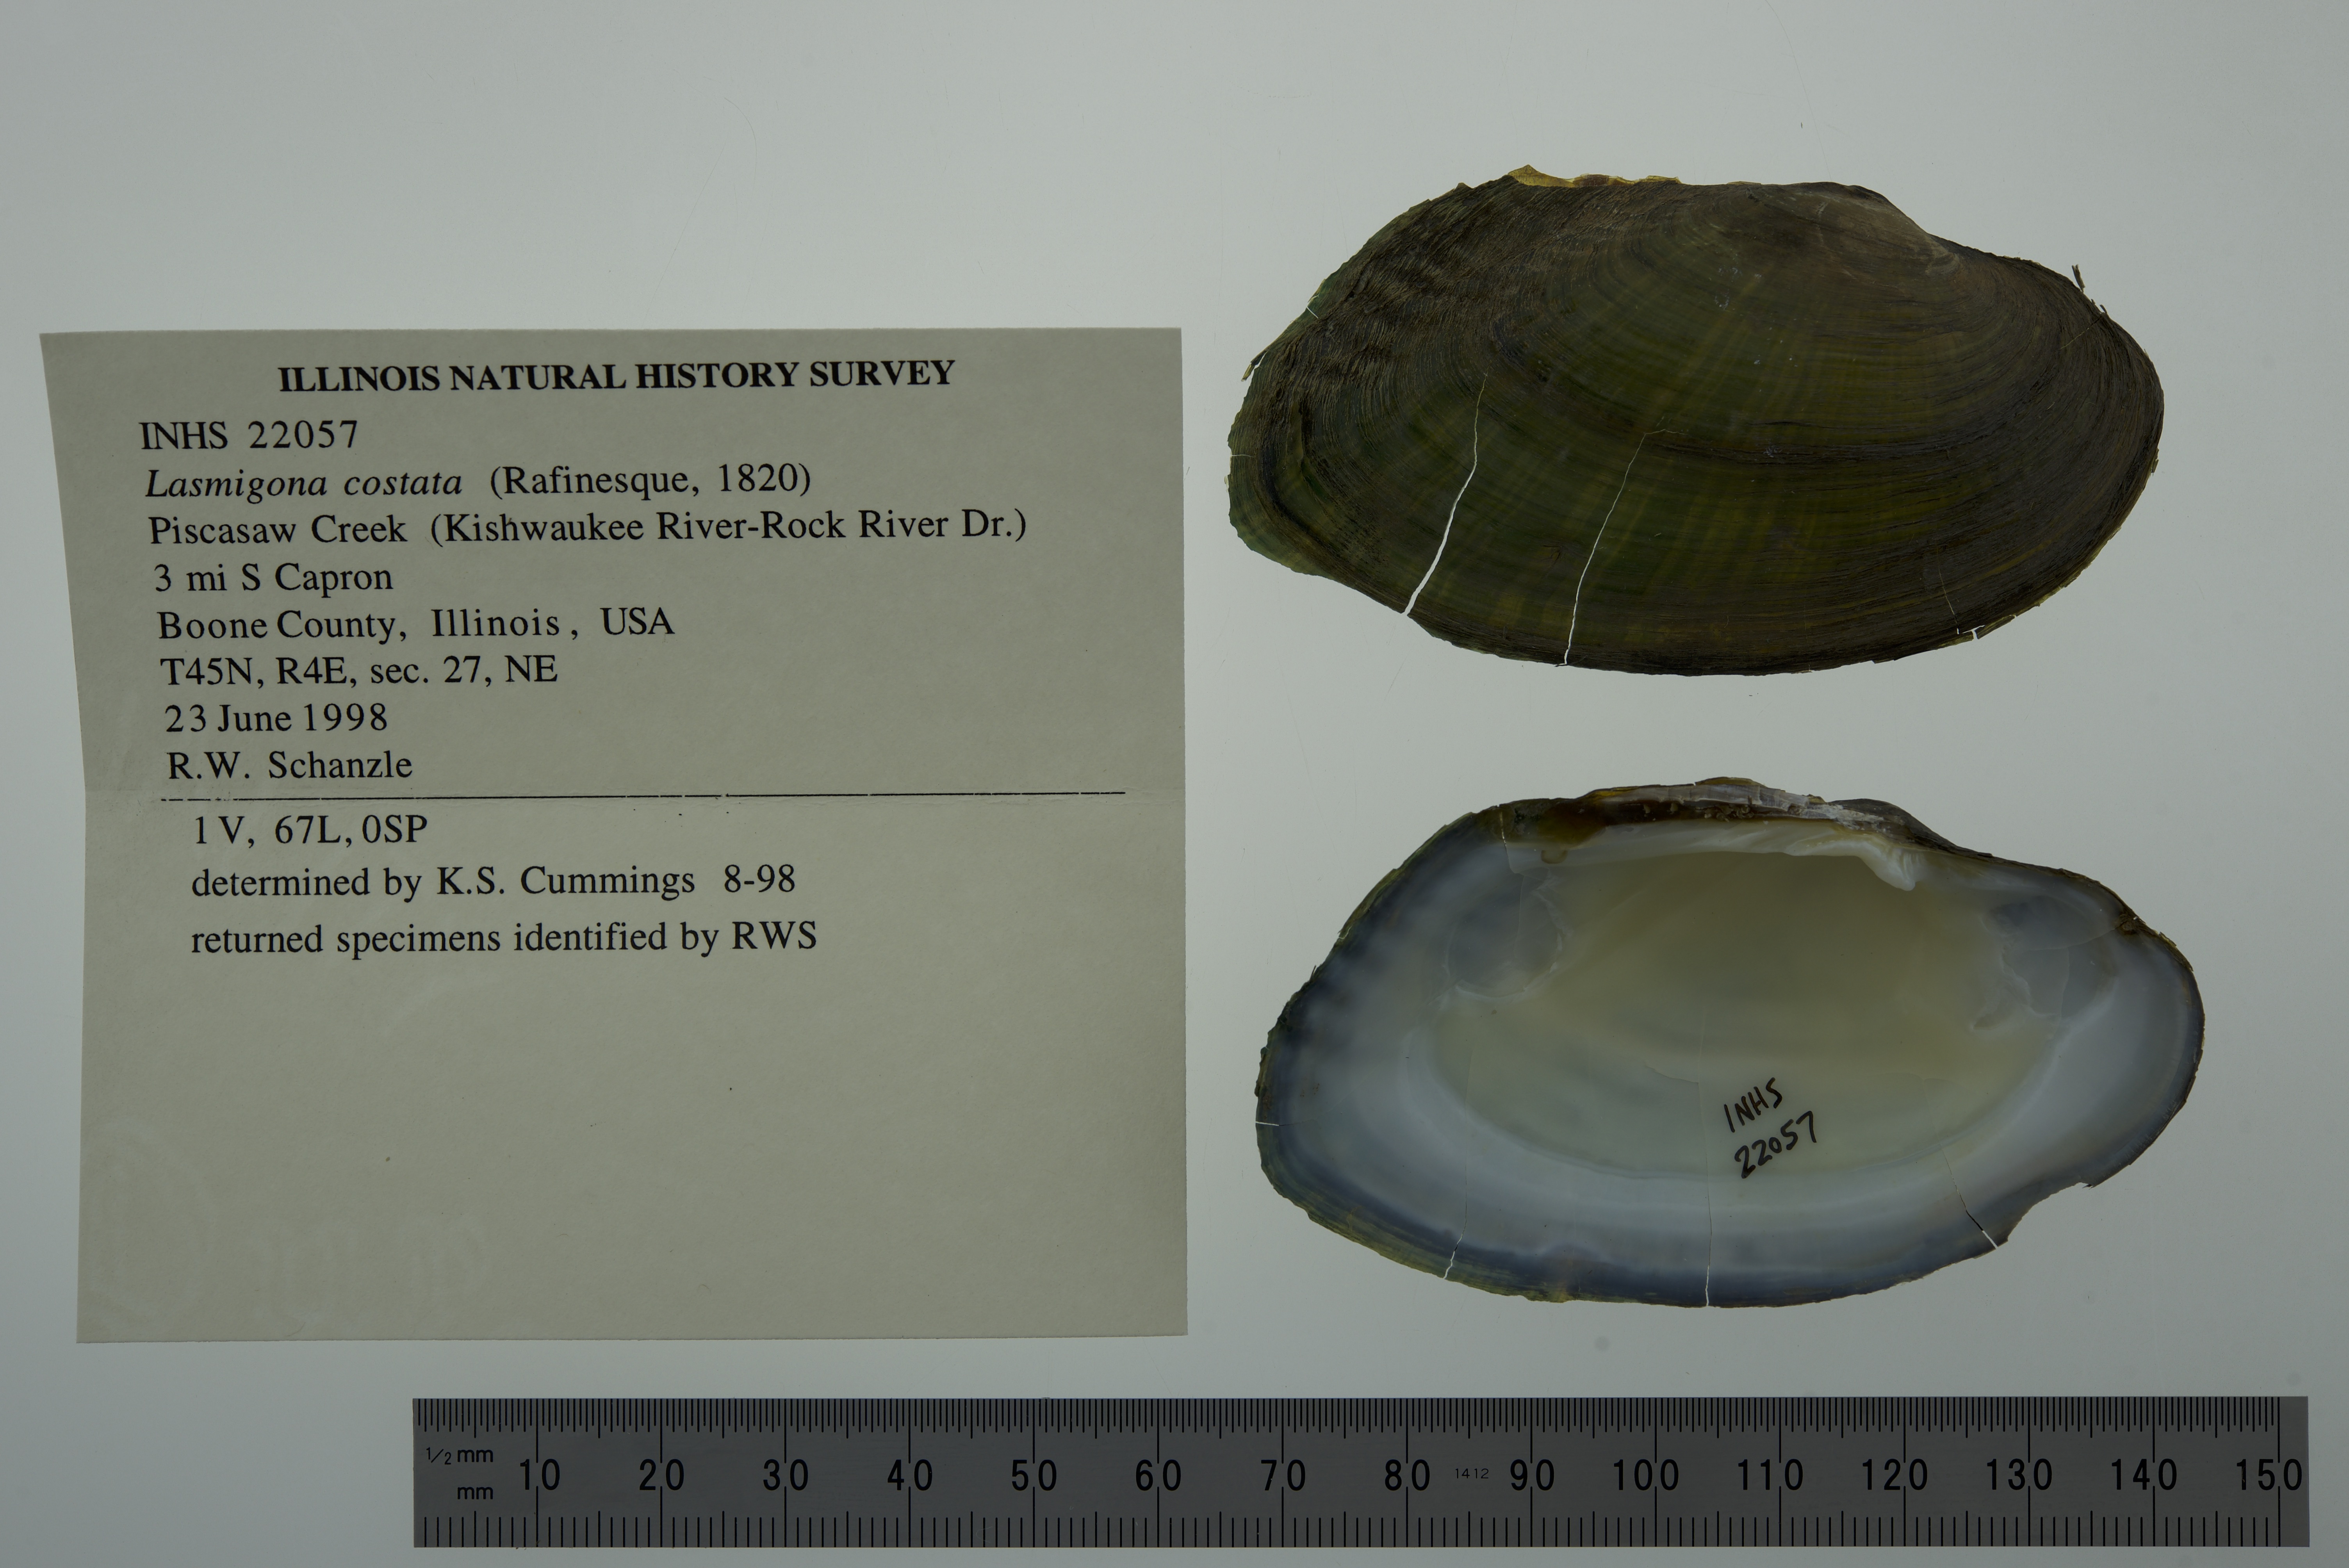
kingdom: Animalia
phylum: Mollusca
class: Bivalvia
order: Unionida
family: Unionidae
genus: Lasmigona
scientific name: Lasmigona costata
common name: Flutedshell
